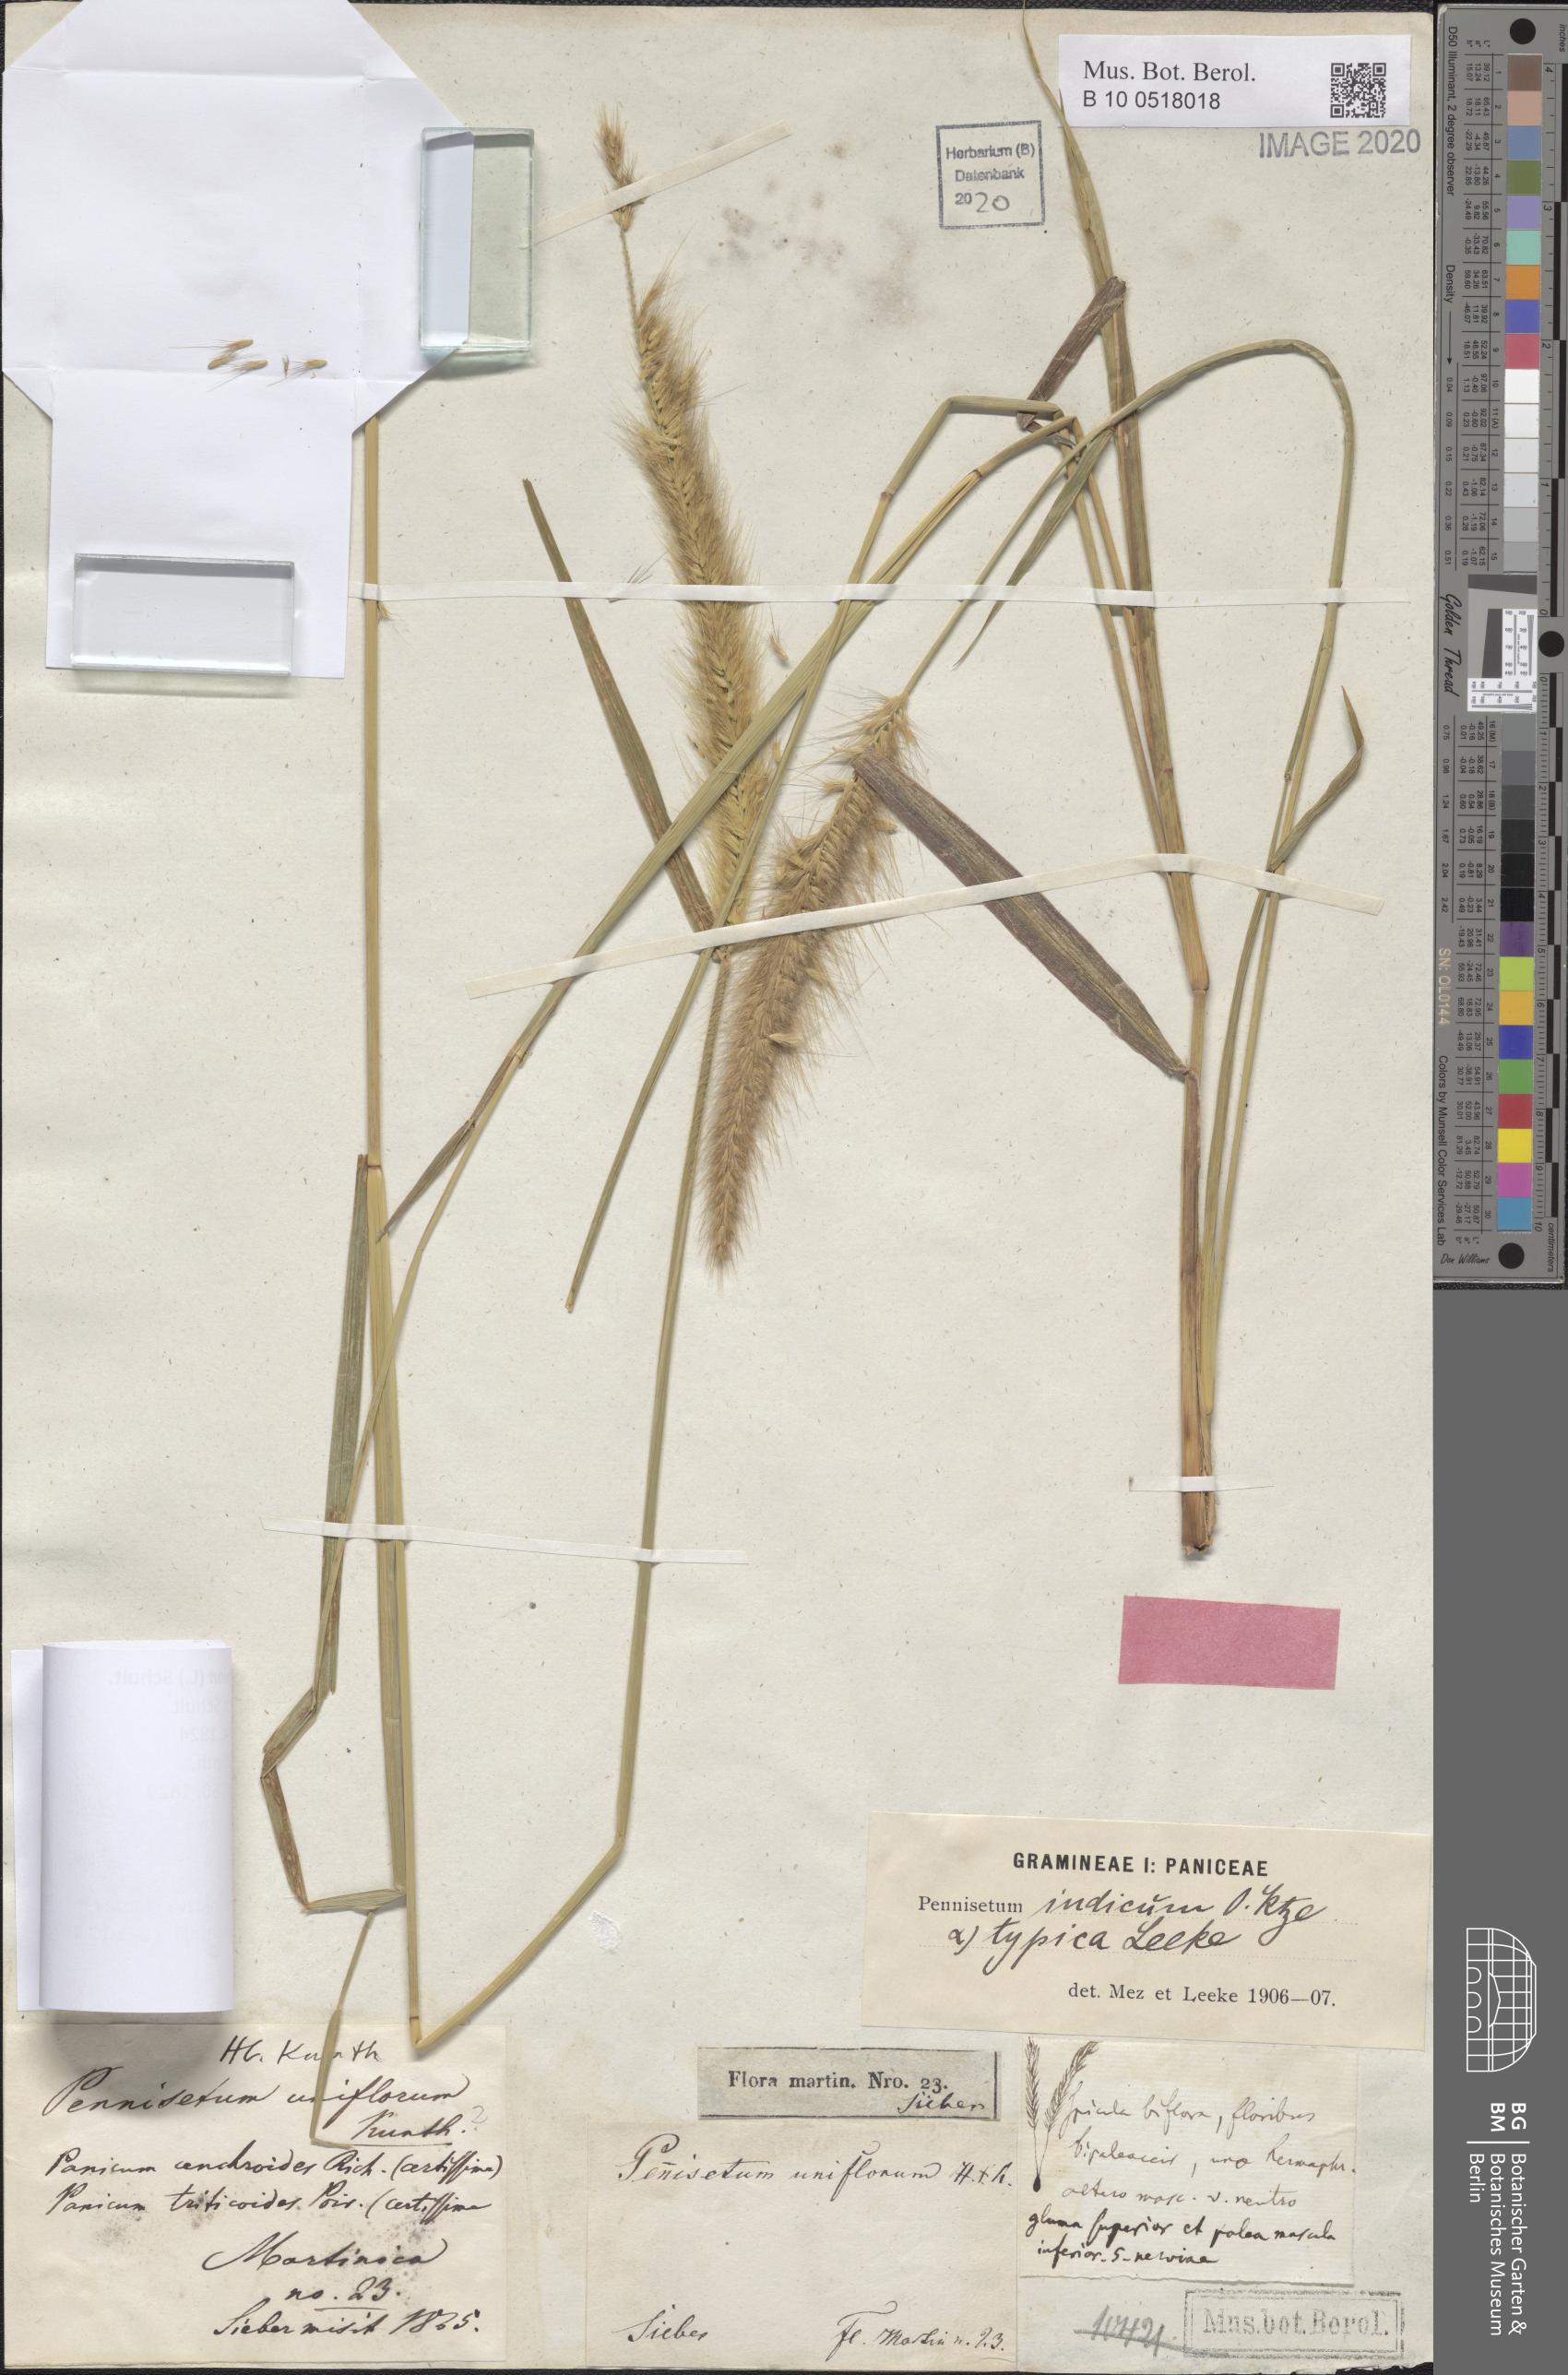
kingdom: Plantae
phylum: Tracheophyta
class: Liliopsida
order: Poales
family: Poaceae
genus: Setaria
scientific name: Setaria parviflora
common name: Knotroot bristle-grass
